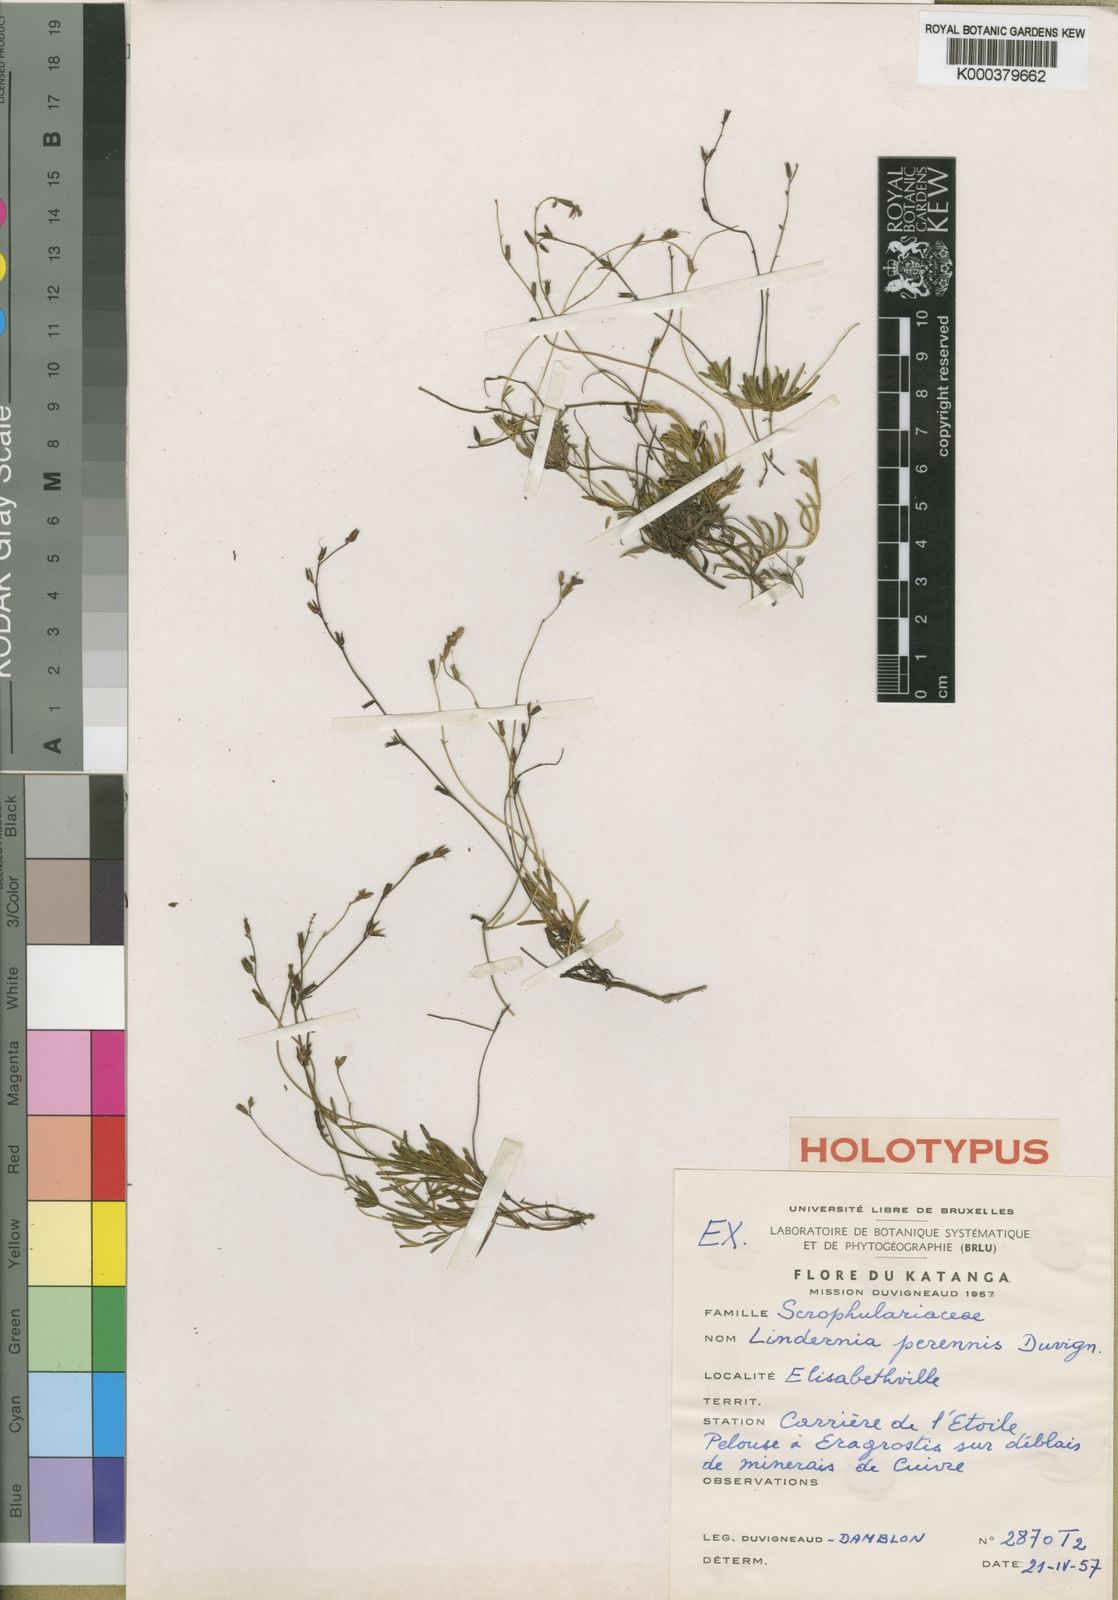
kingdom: Plantae
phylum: Tracheophyta
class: Magnoliopsida
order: Lamiales
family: Linderniaceae
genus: Crepidorhopalon
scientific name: Crepidorhopalon perennis
